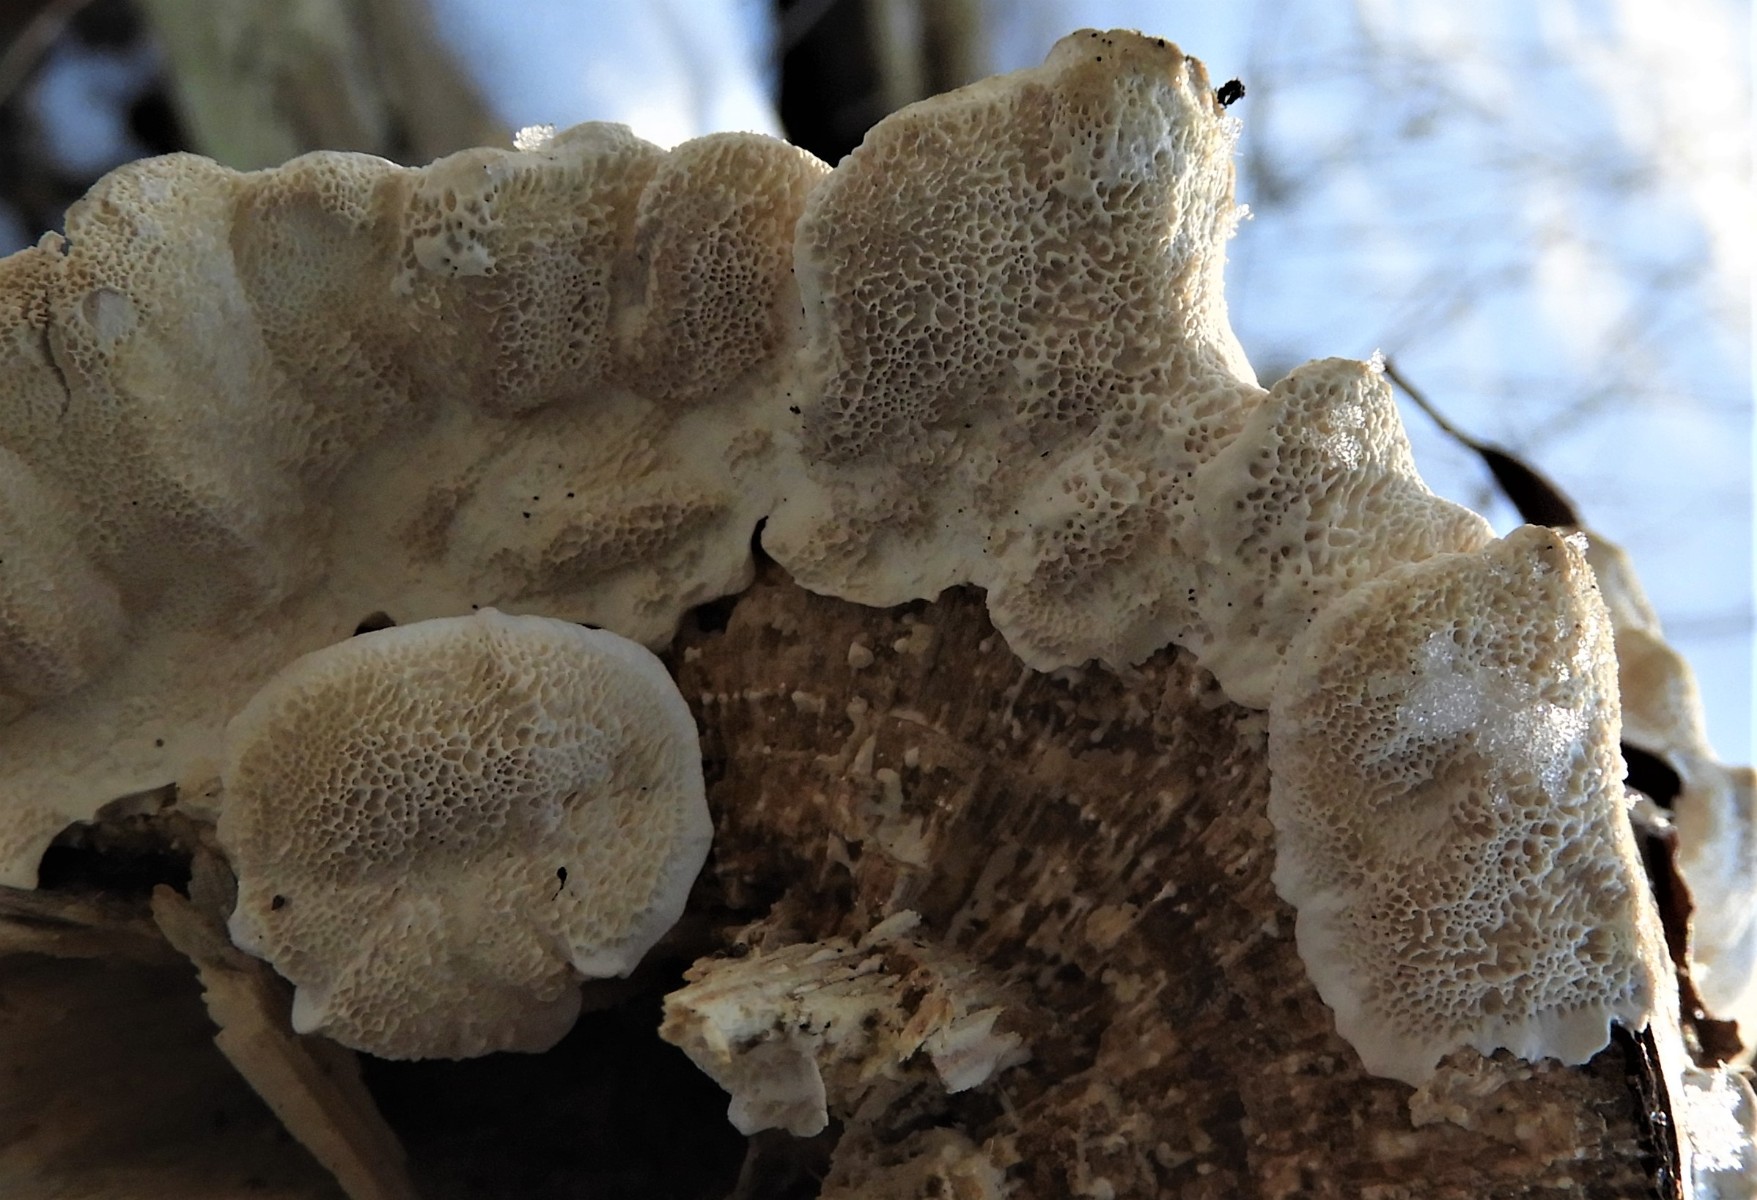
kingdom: Fungi
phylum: Basidiomycota
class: Agaricomycetes
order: Polyporales
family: Polyporaceae
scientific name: Polyporaceae
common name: poresvampfamilien
